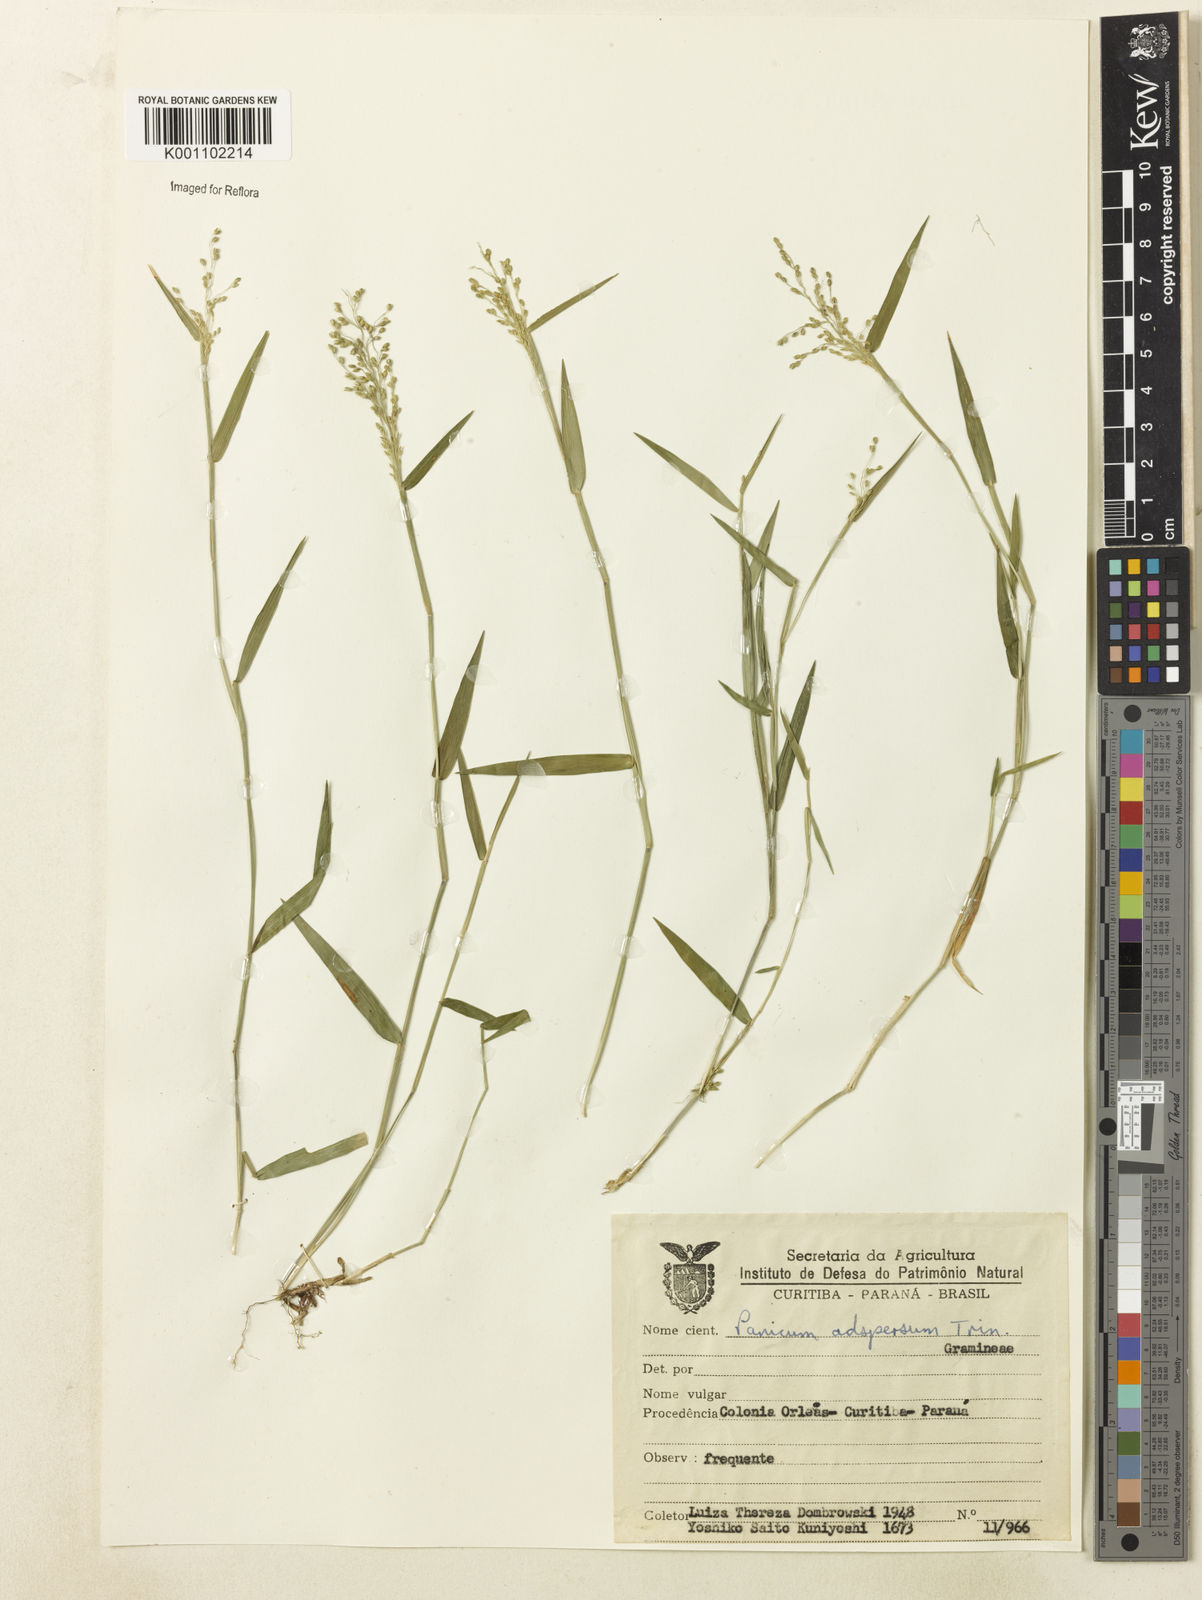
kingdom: Plantae
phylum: Tracheophyta
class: Liliopsida
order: Poales
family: Poaceae
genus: Dichanthelium
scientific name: Dichanthelium sabulorum
